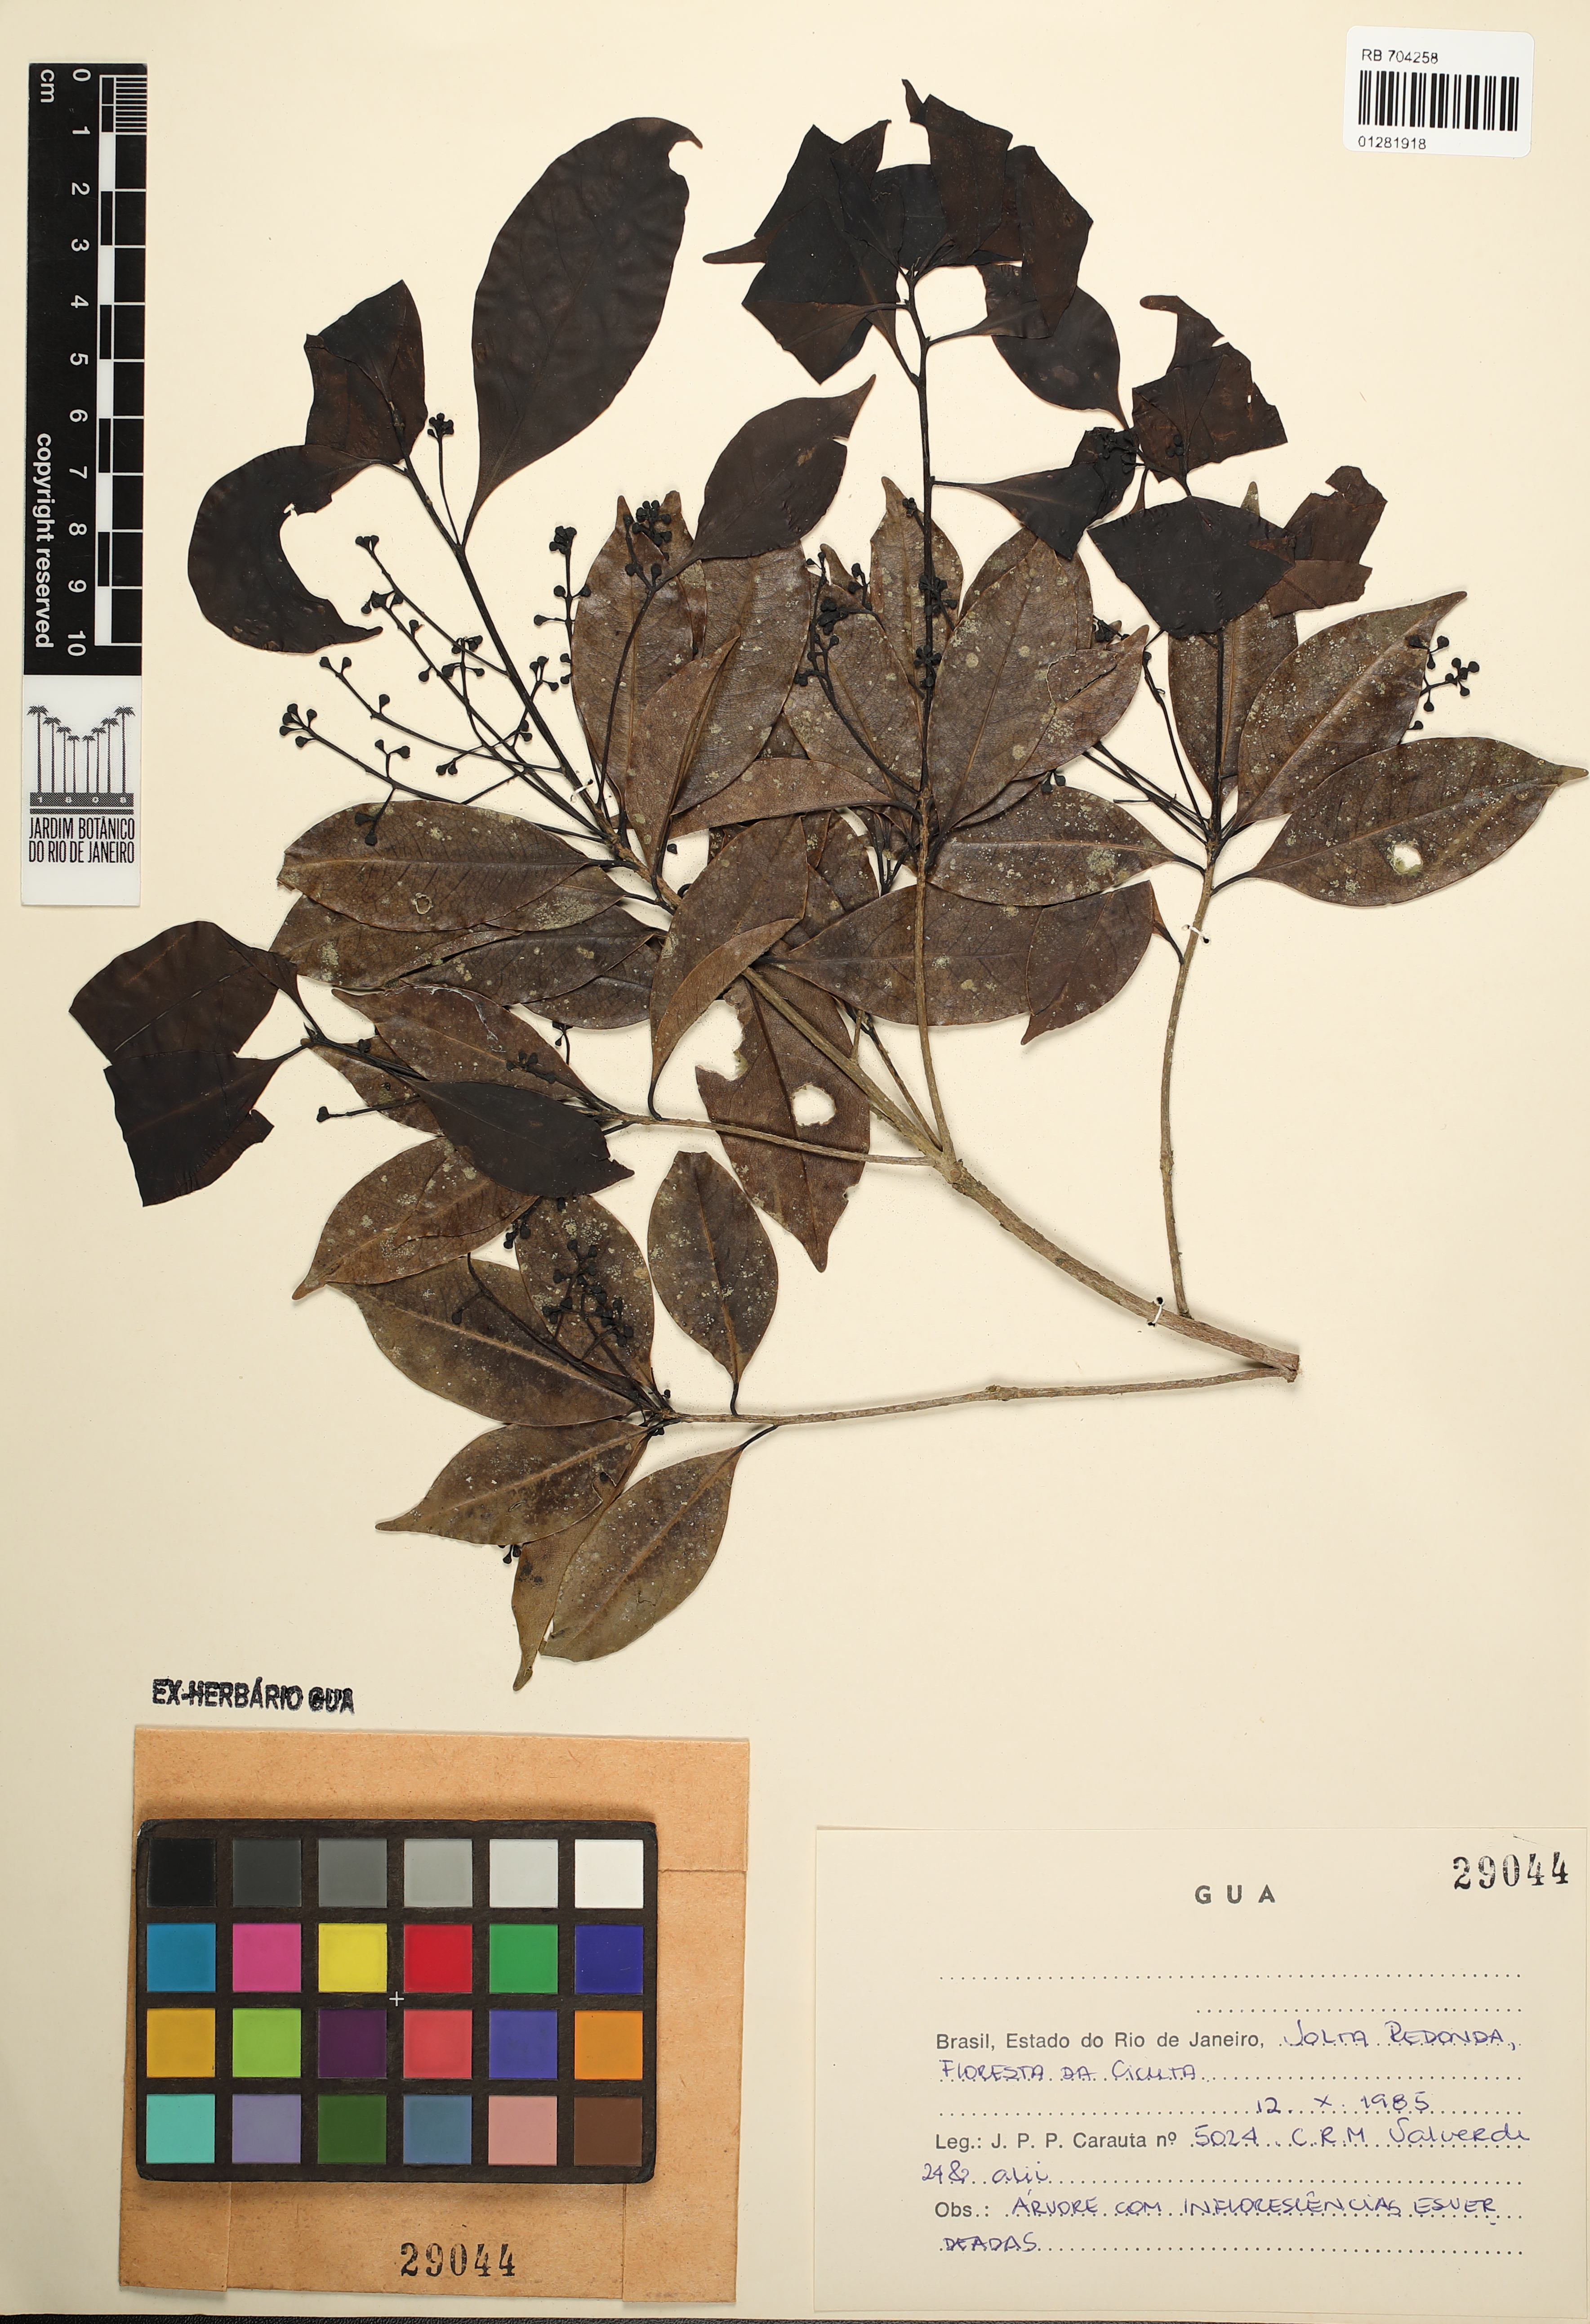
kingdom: Plantae
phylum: Tracheophyta
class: Magnoliopsida
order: Laurales
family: Lauraceae
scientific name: Lauraceae
